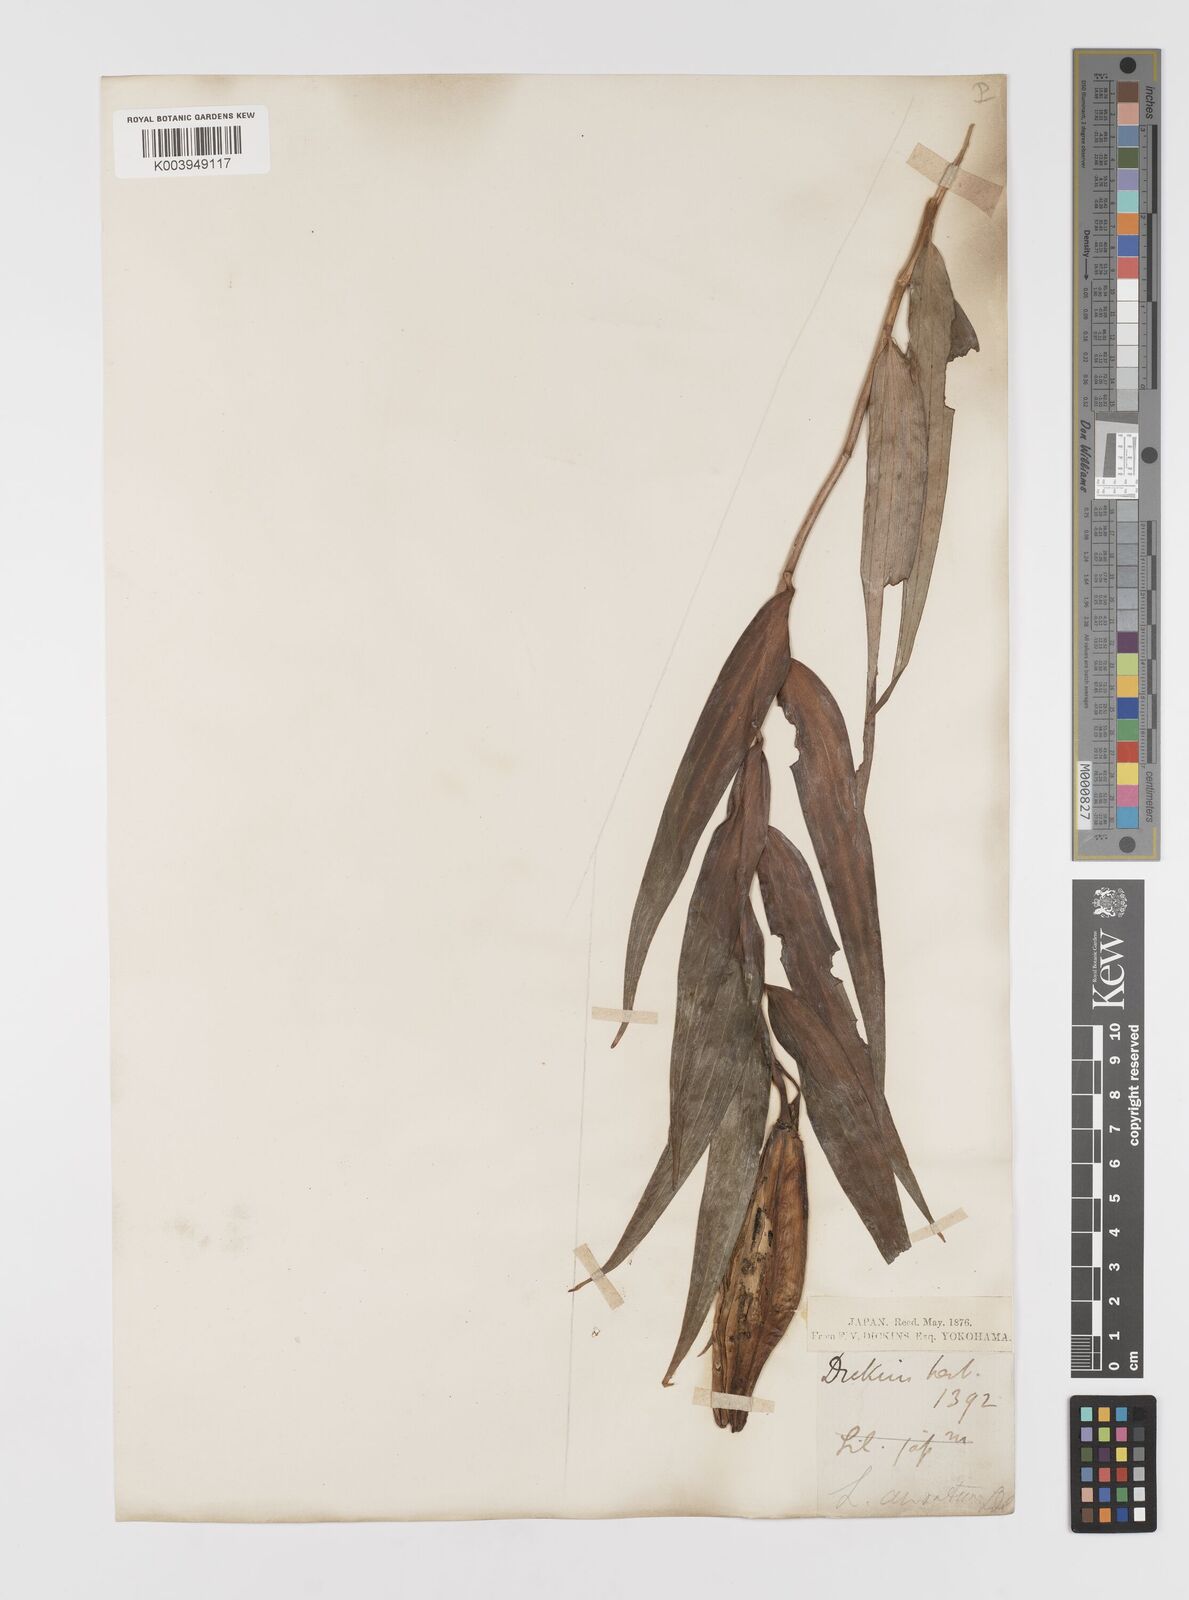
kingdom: Plantae
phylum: Tracheophyta
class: Liliopsida
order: Liliales
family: Liliaceae
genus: Lilium
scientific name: Lilium auratum
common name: Golden-ray lily
